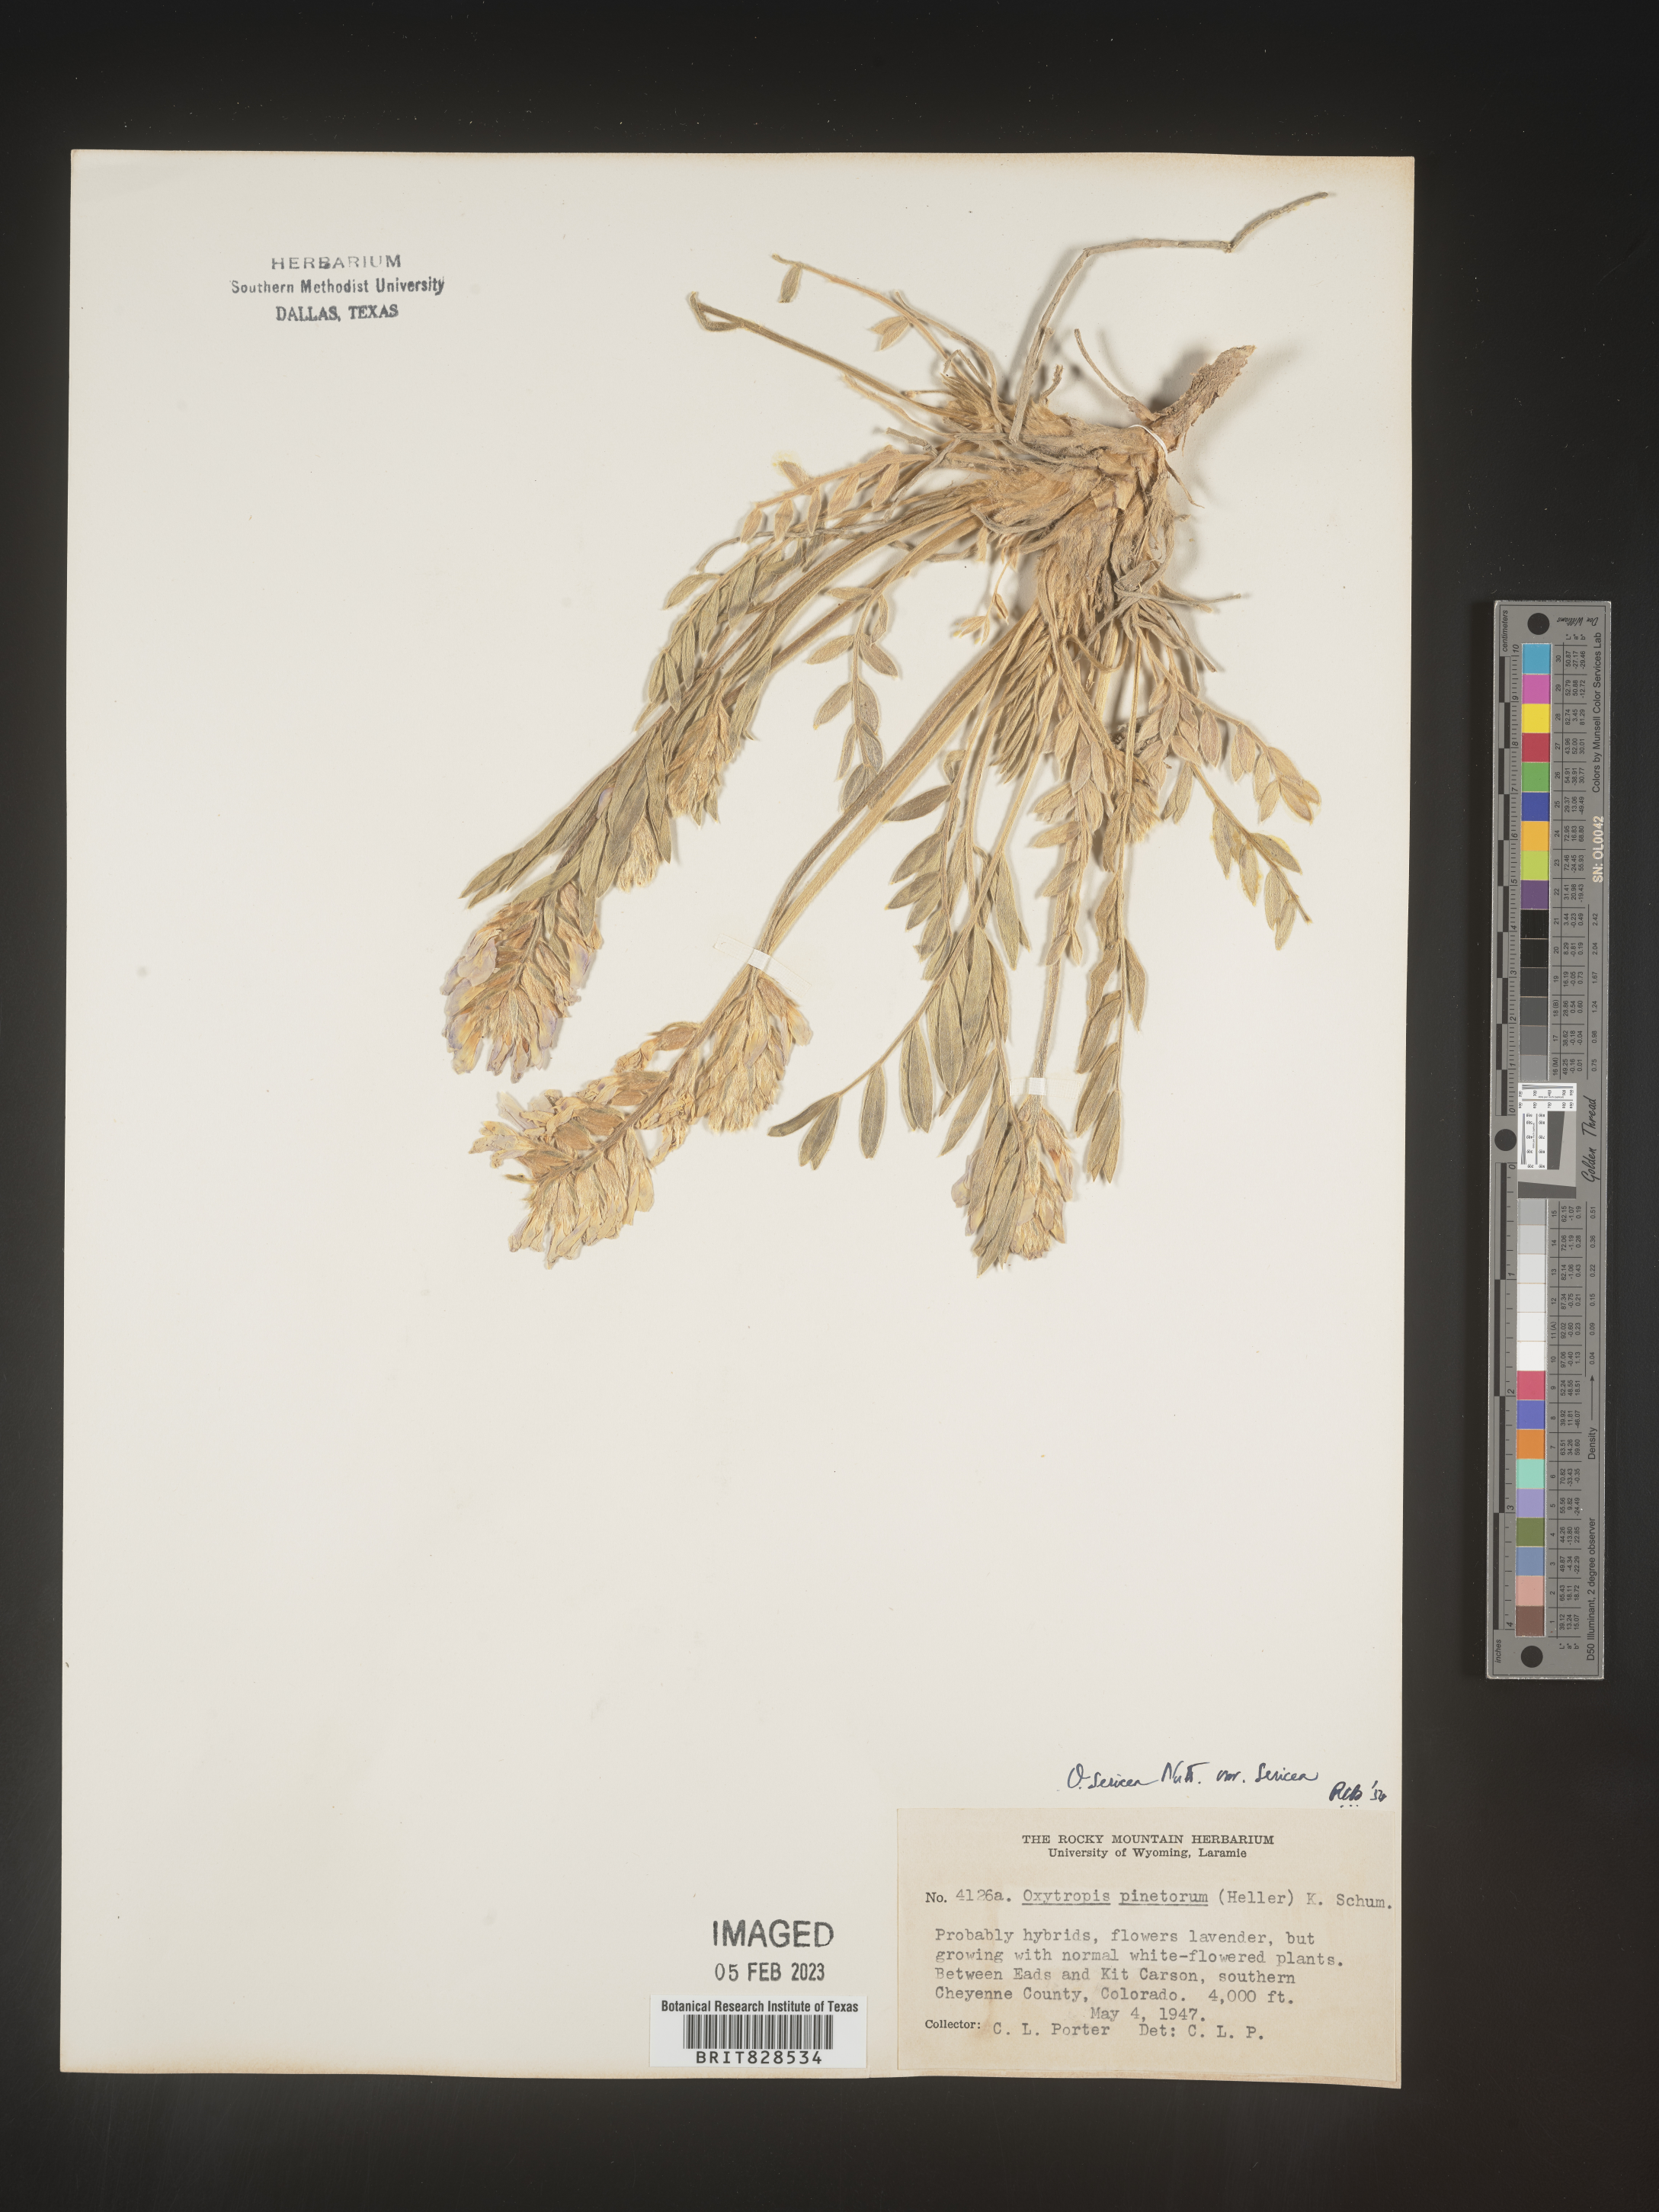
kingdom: Plantae
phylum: Tracheophyta
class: Magnoliopsida
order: Fabales
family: Fabaceae
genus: Oxytropis
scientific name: Oxytropis sericea
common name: Silky locoweed
